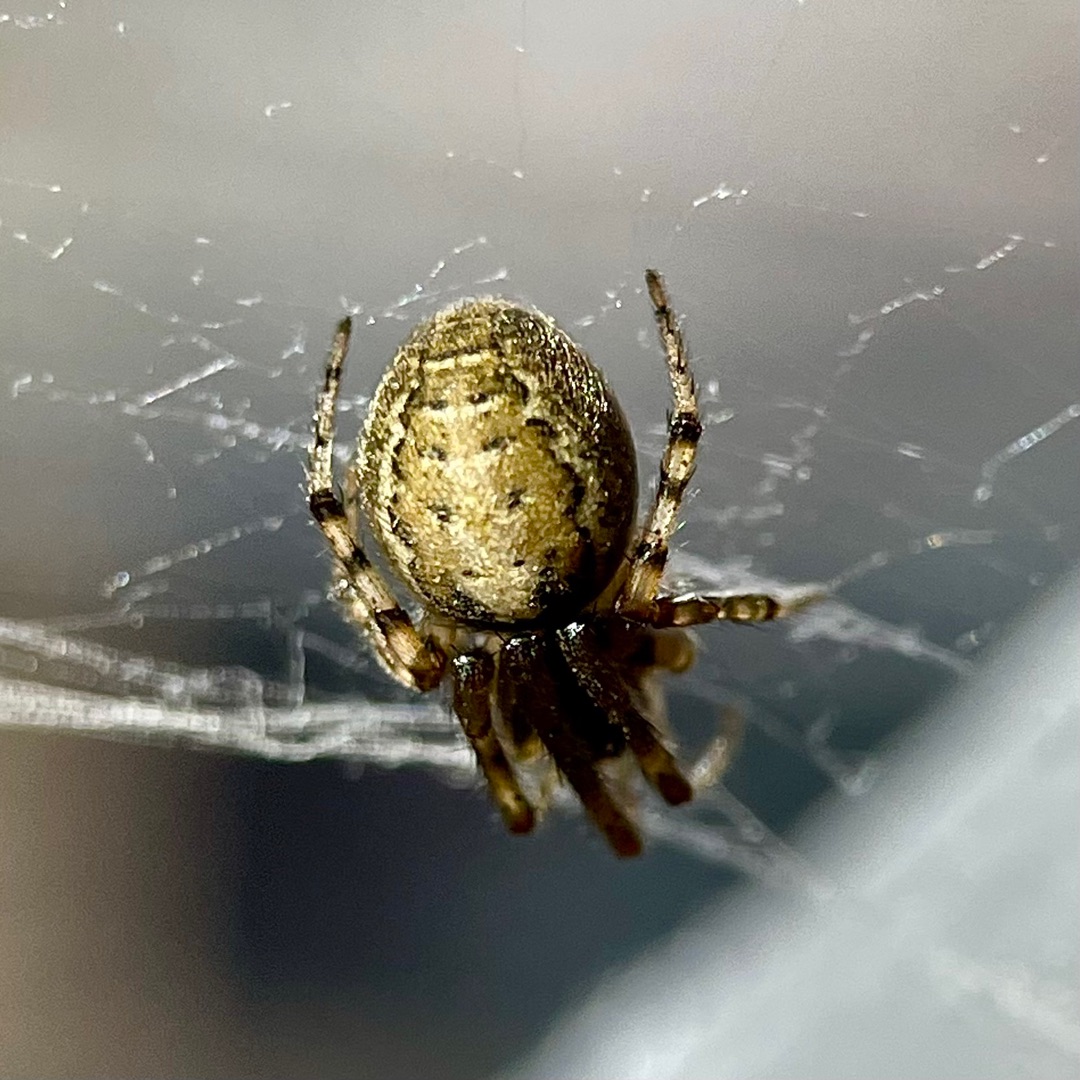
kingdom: Animalia
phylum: Arthropoda
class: Arachnida
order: Araneae
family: Araneidae
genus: Zygiella
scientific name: Zygiella x-notata
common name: Grå sektoredderkop
